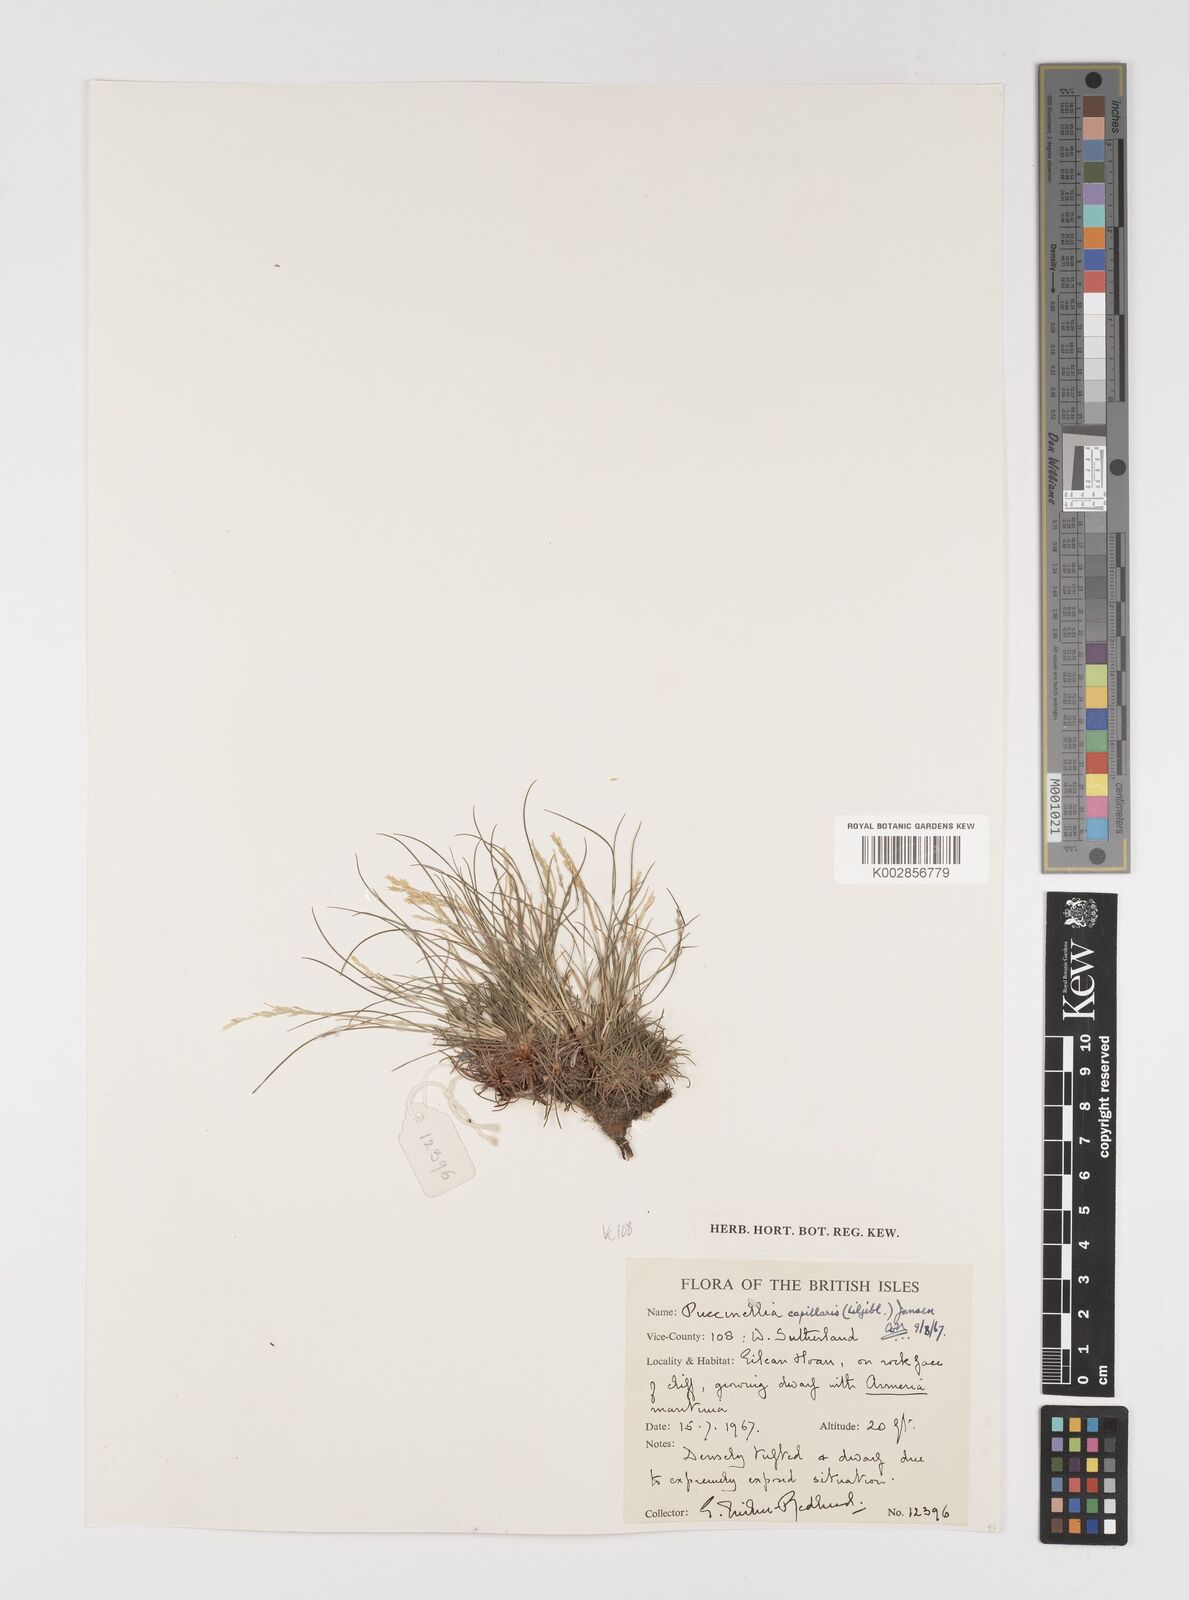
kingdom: Plantae
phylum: Tracheophyta
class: Liliopsida
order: Poales
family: Poaceae
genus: Puccinellia
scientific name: Puccinellia distans
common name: Weeping alkaligrass
